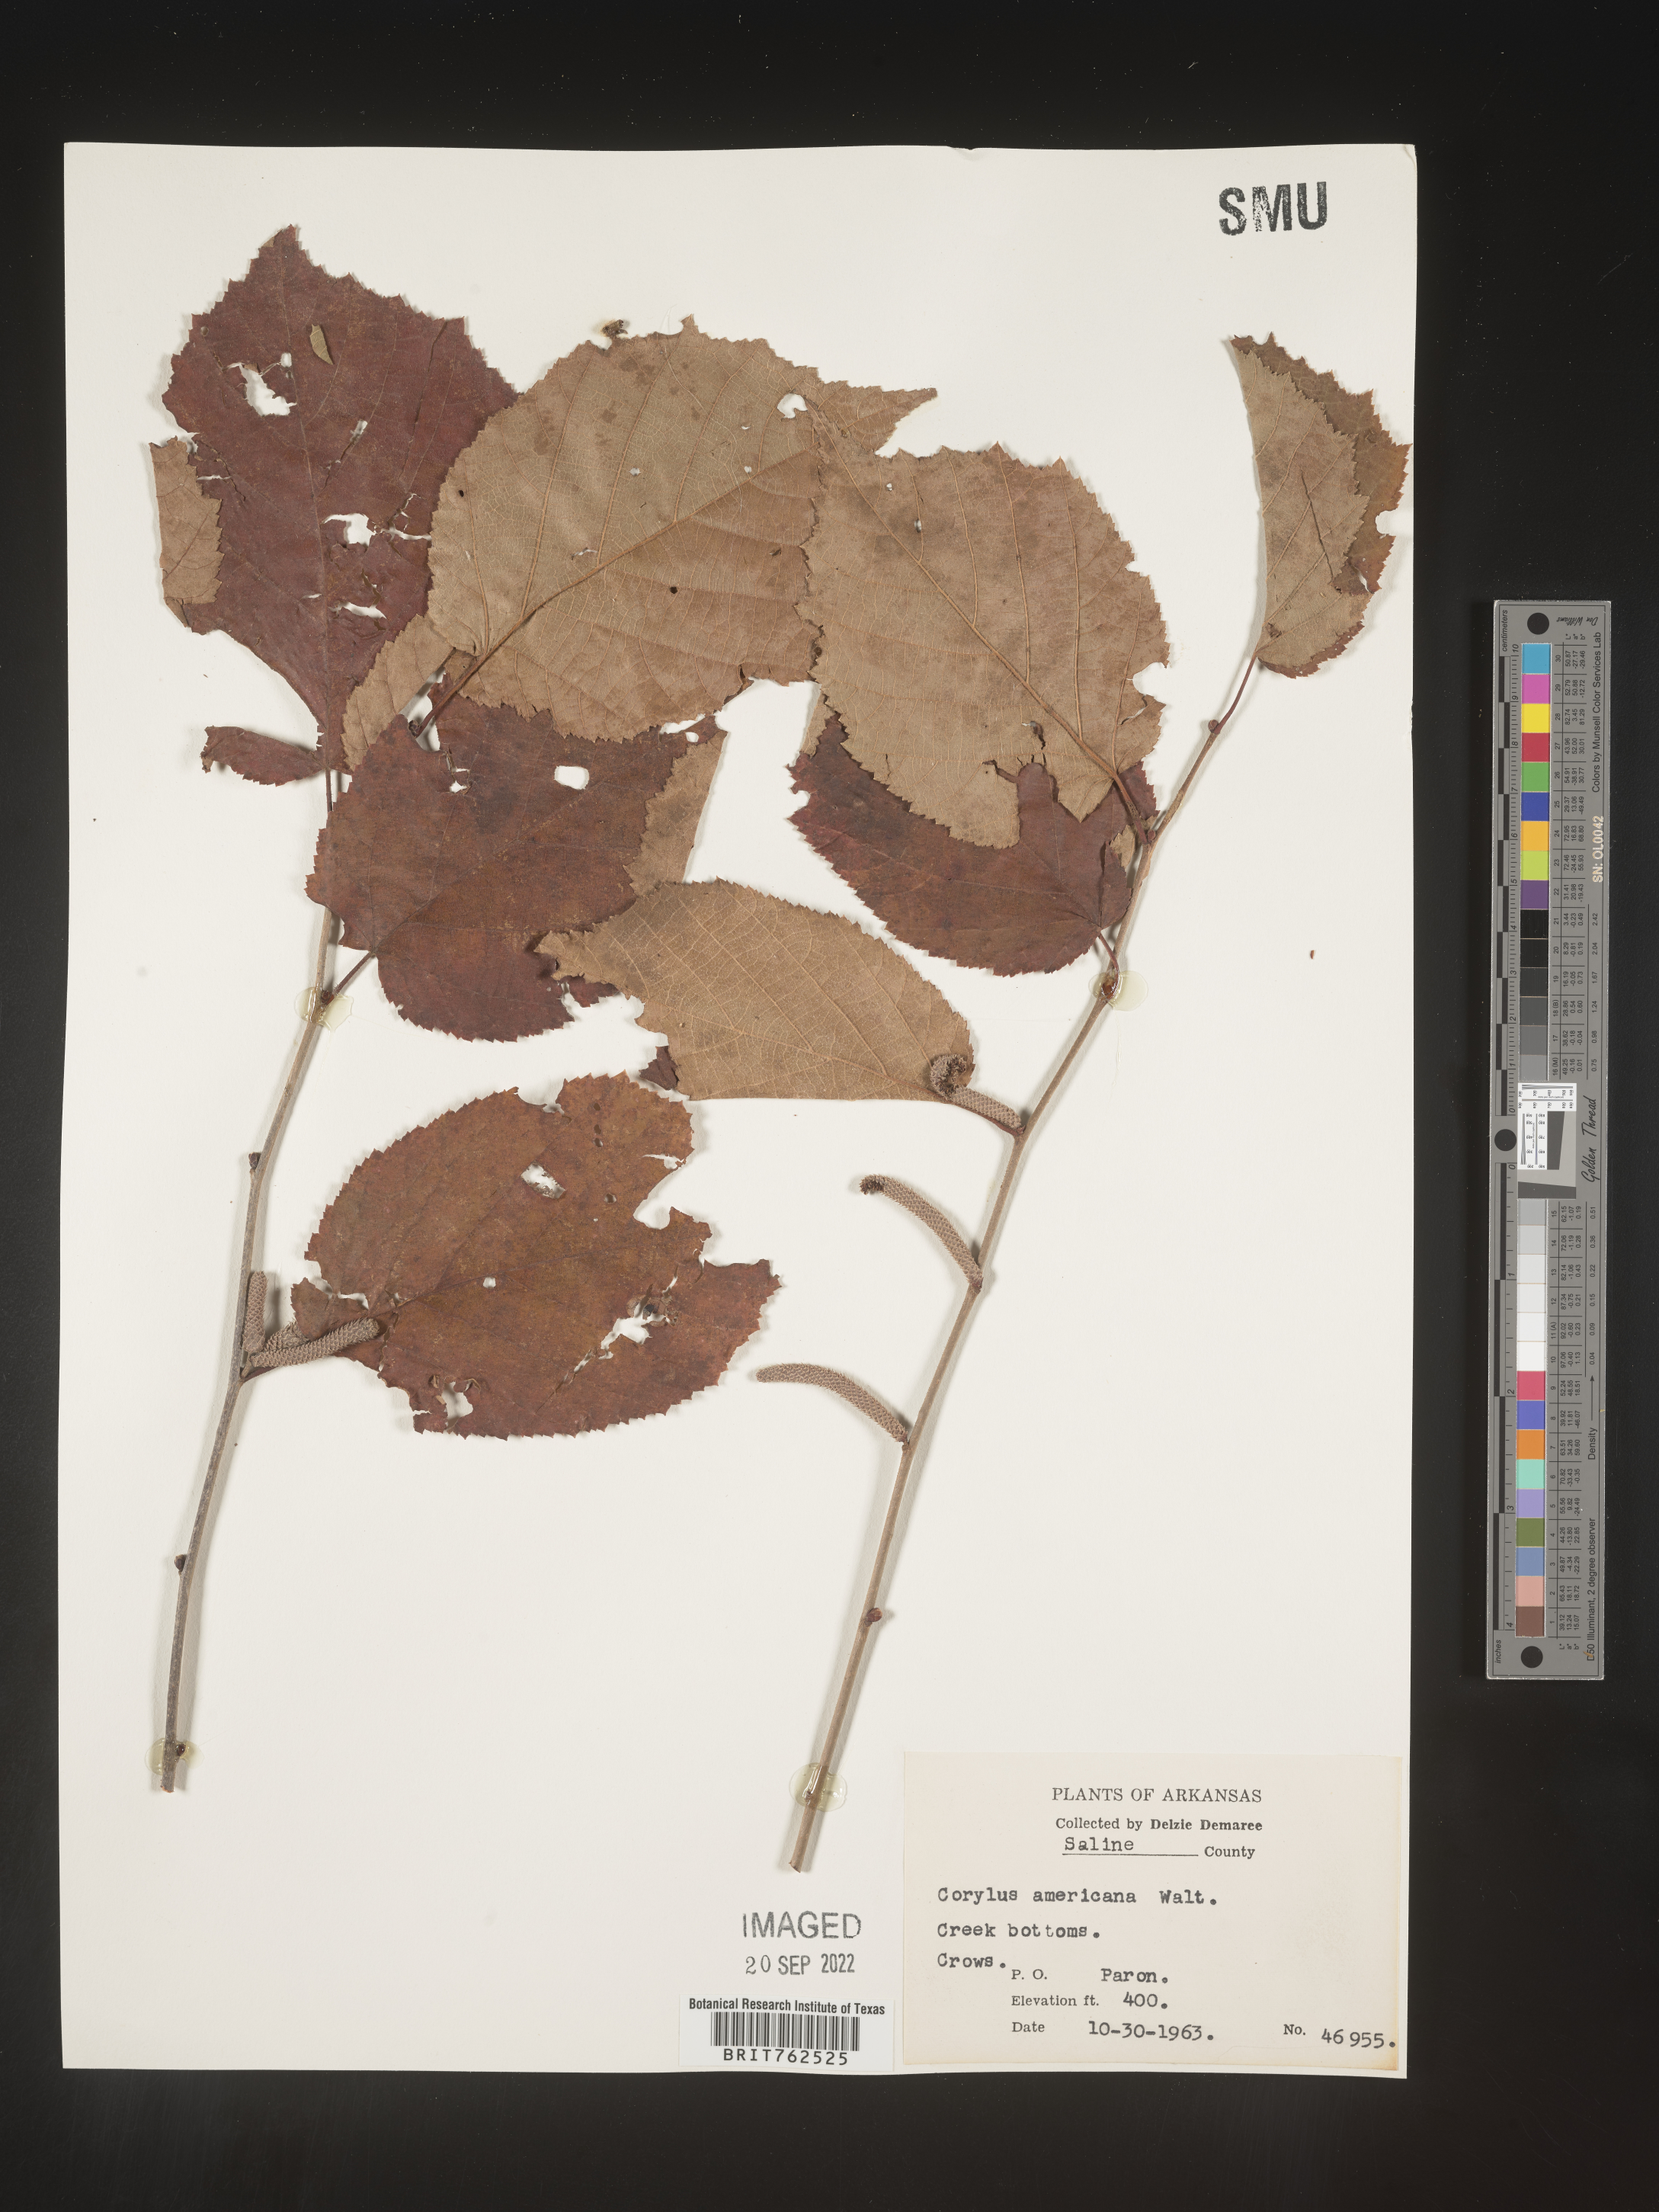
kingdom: Plantae
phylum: Tracheophyta
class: Magnoliopsida
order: Fagales
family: Betulaceae
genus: Corylus
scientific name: Corylus americana
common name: American hazel
